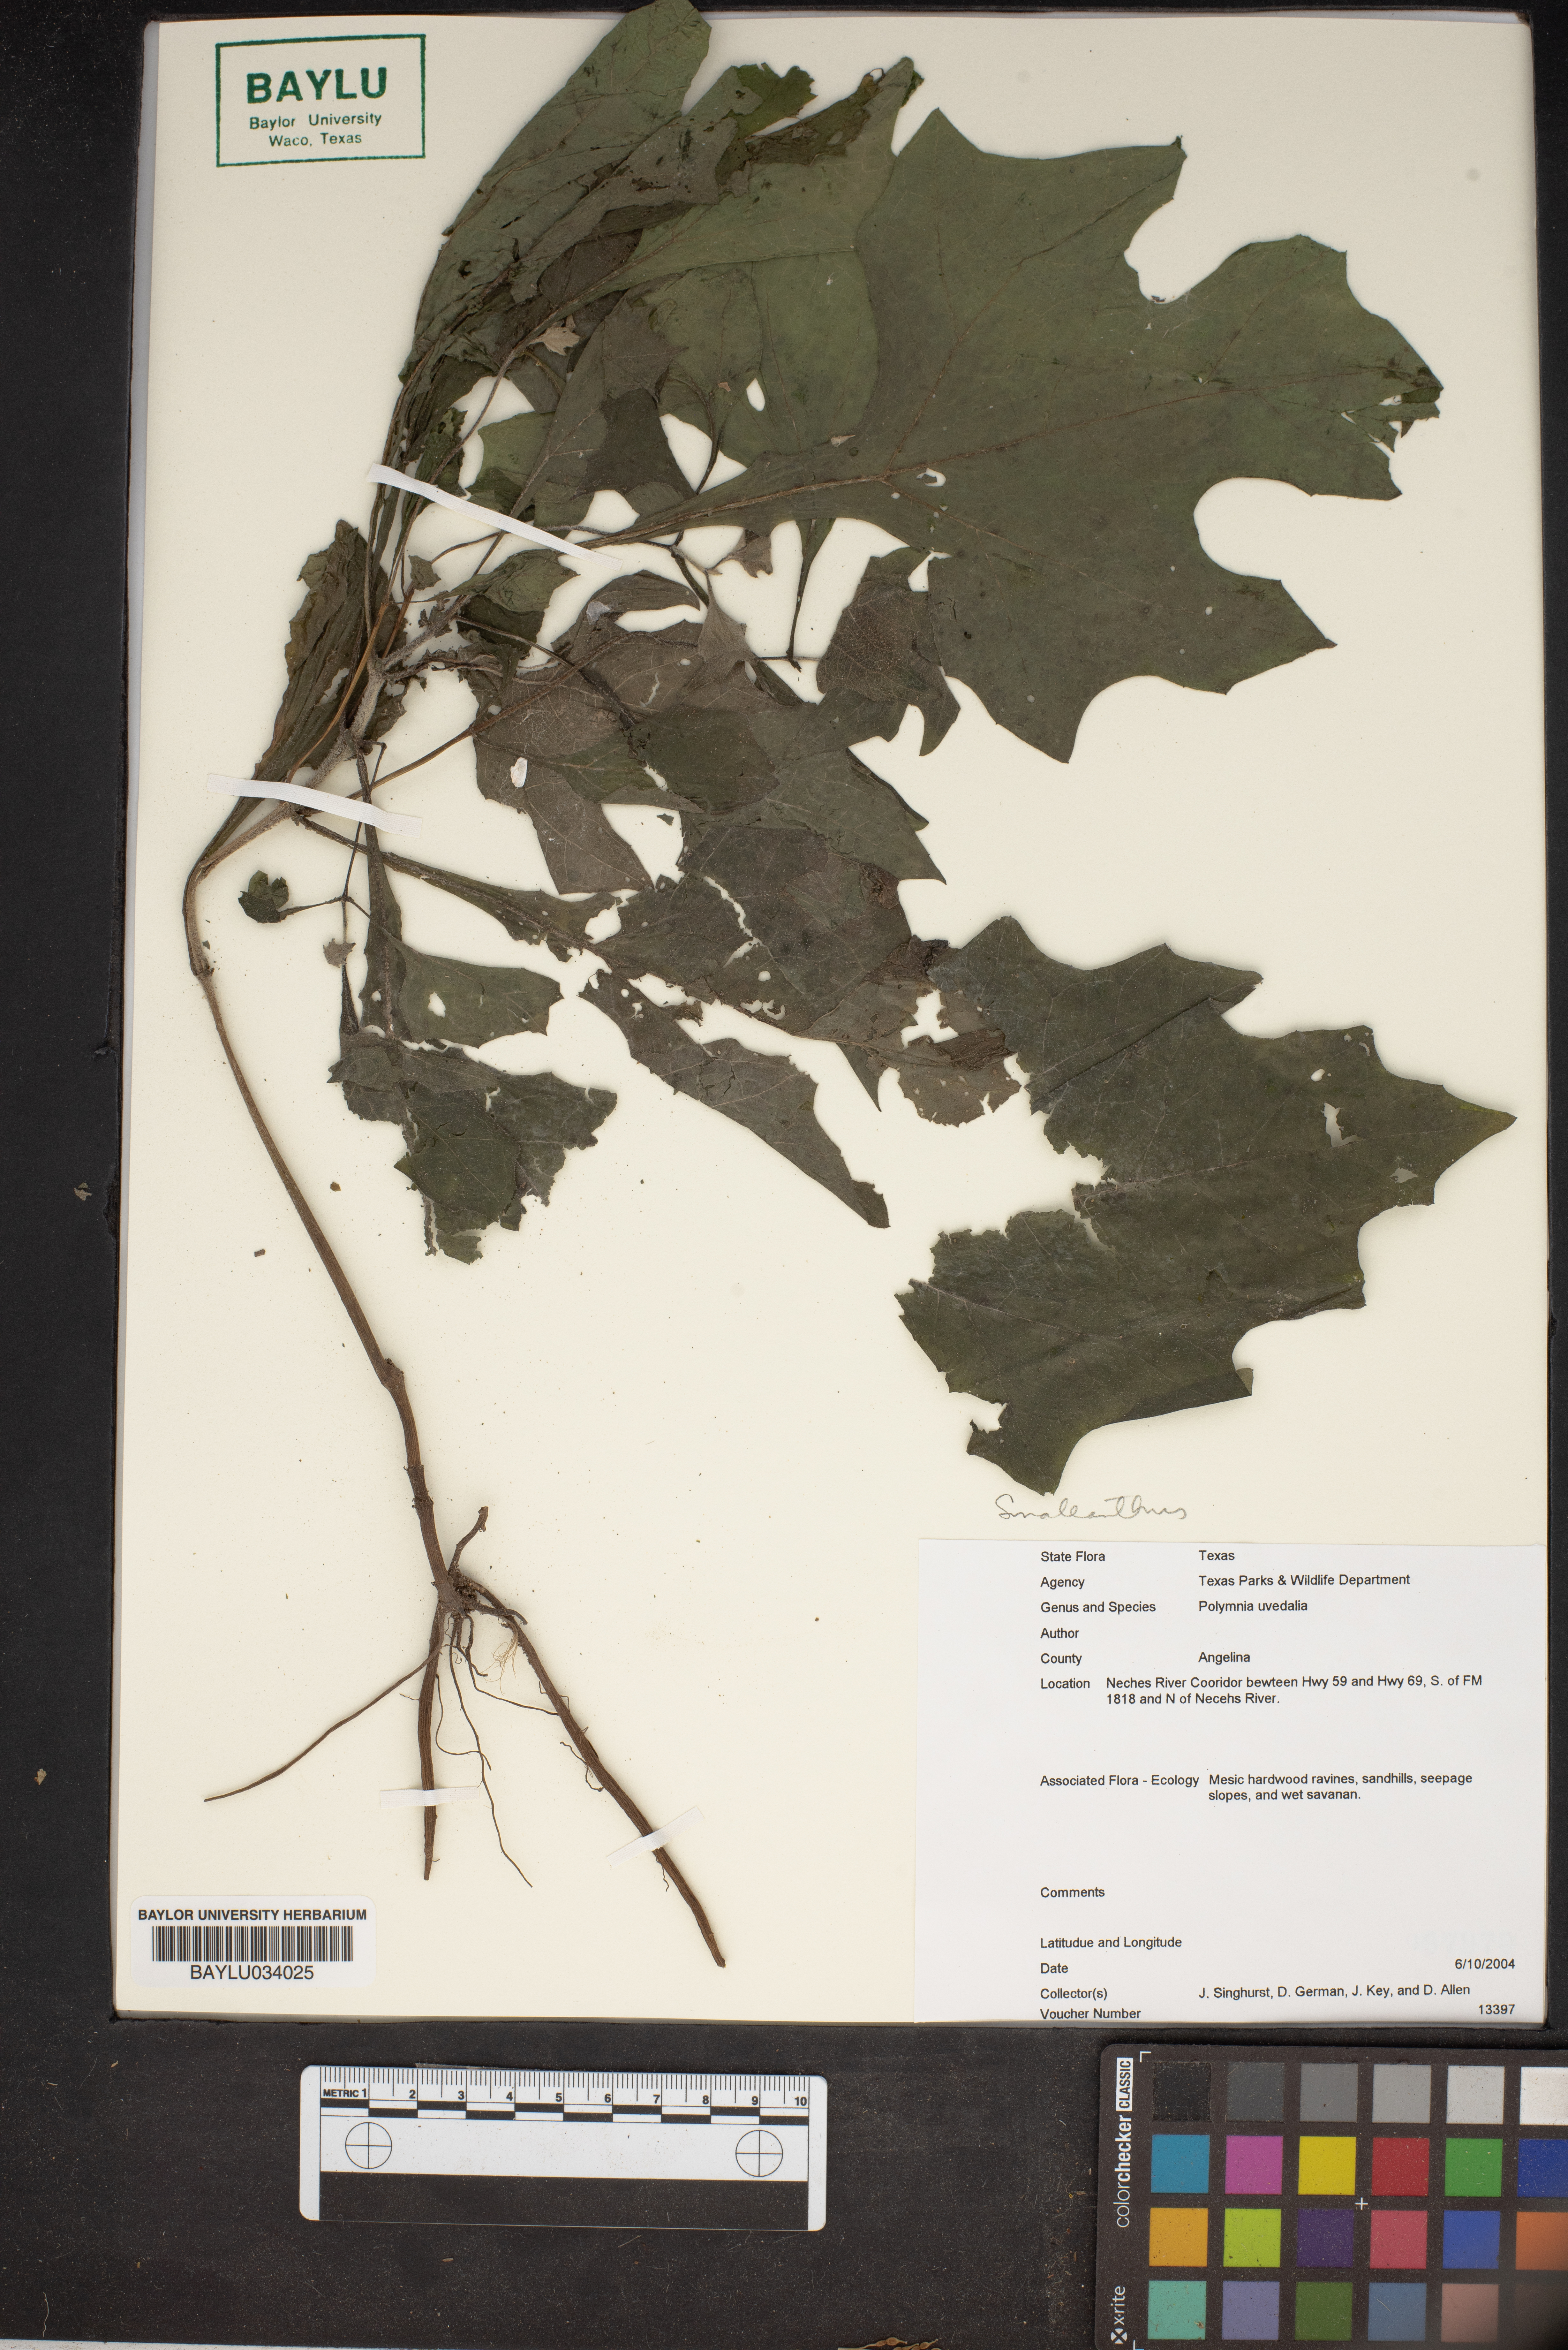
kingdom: Plantae
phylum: Tracheophyta
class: Magnoliopsida
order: Asterales
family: Asteraceae
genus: Smallanthus
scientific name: Smallanthus uvedalia
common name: Bear's-foot
